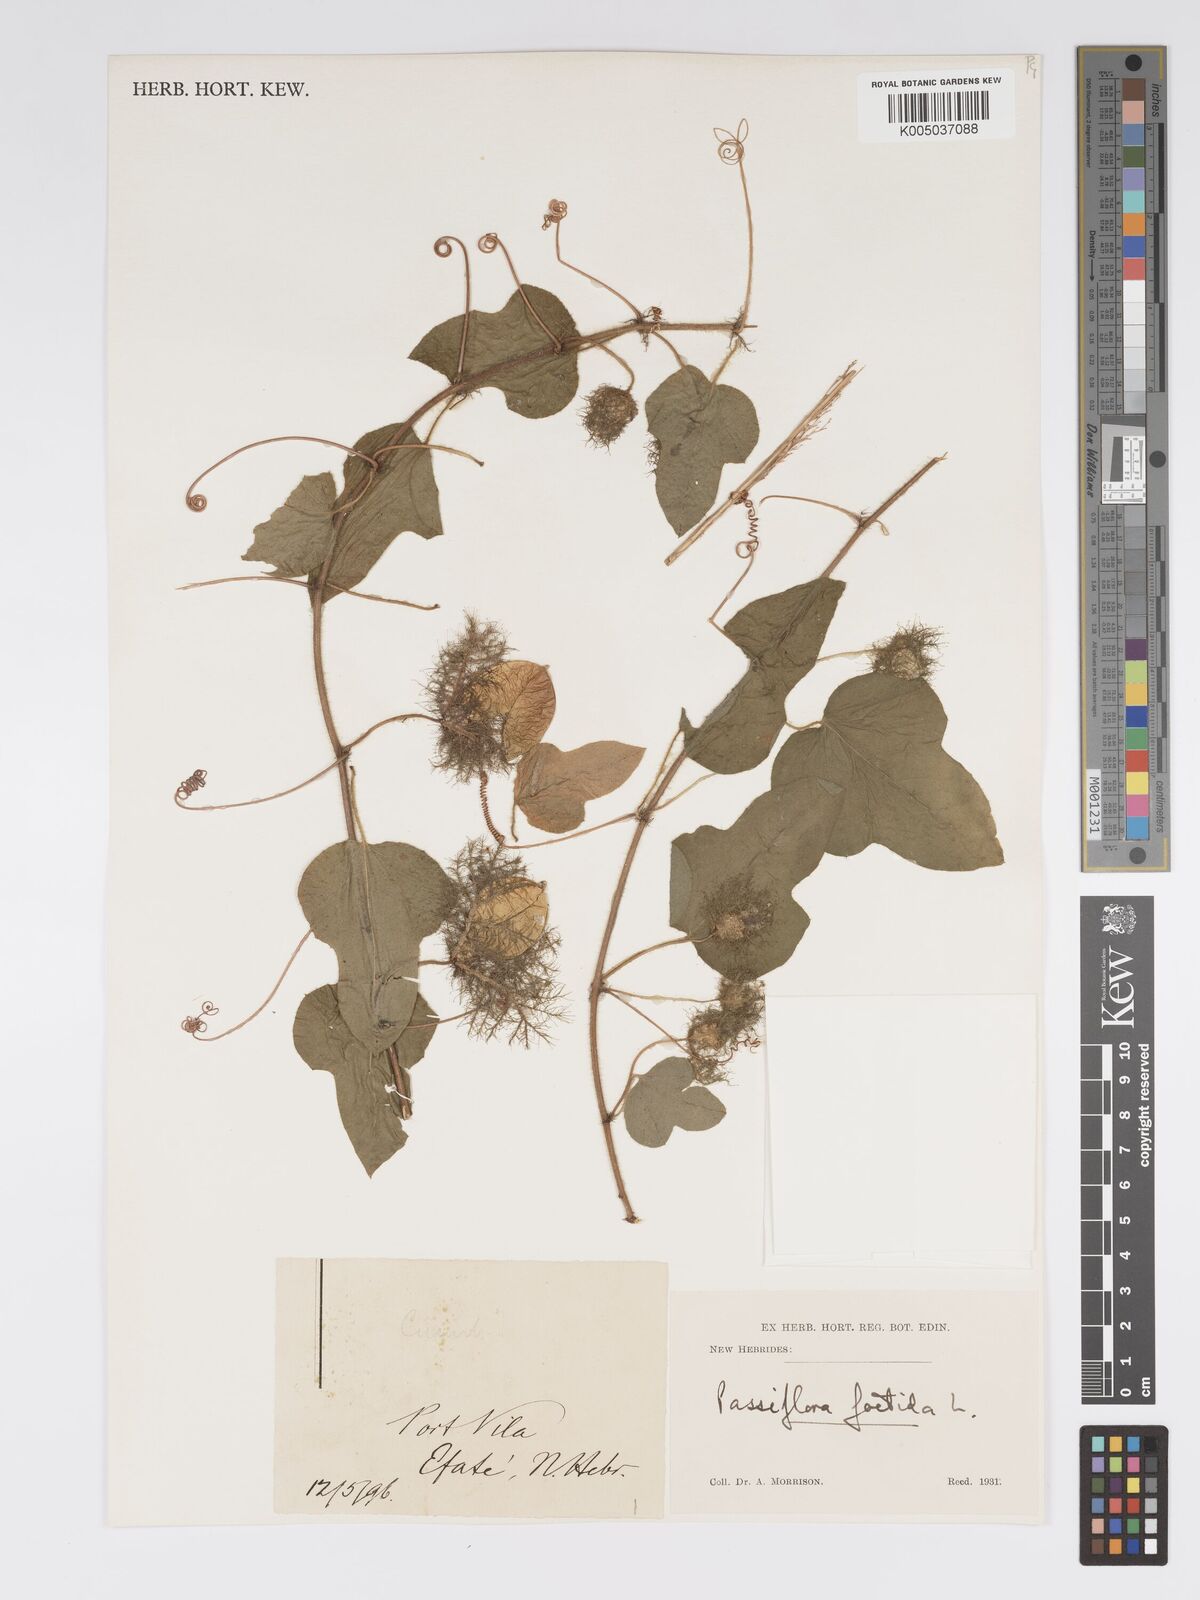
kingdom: Plantae
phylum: Tracheophyta
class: Magnoliopsida
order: Malpighiales
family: Passifloraceae
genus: Passiflora
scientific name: Passiflora foetida
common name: Fetid passionflower
